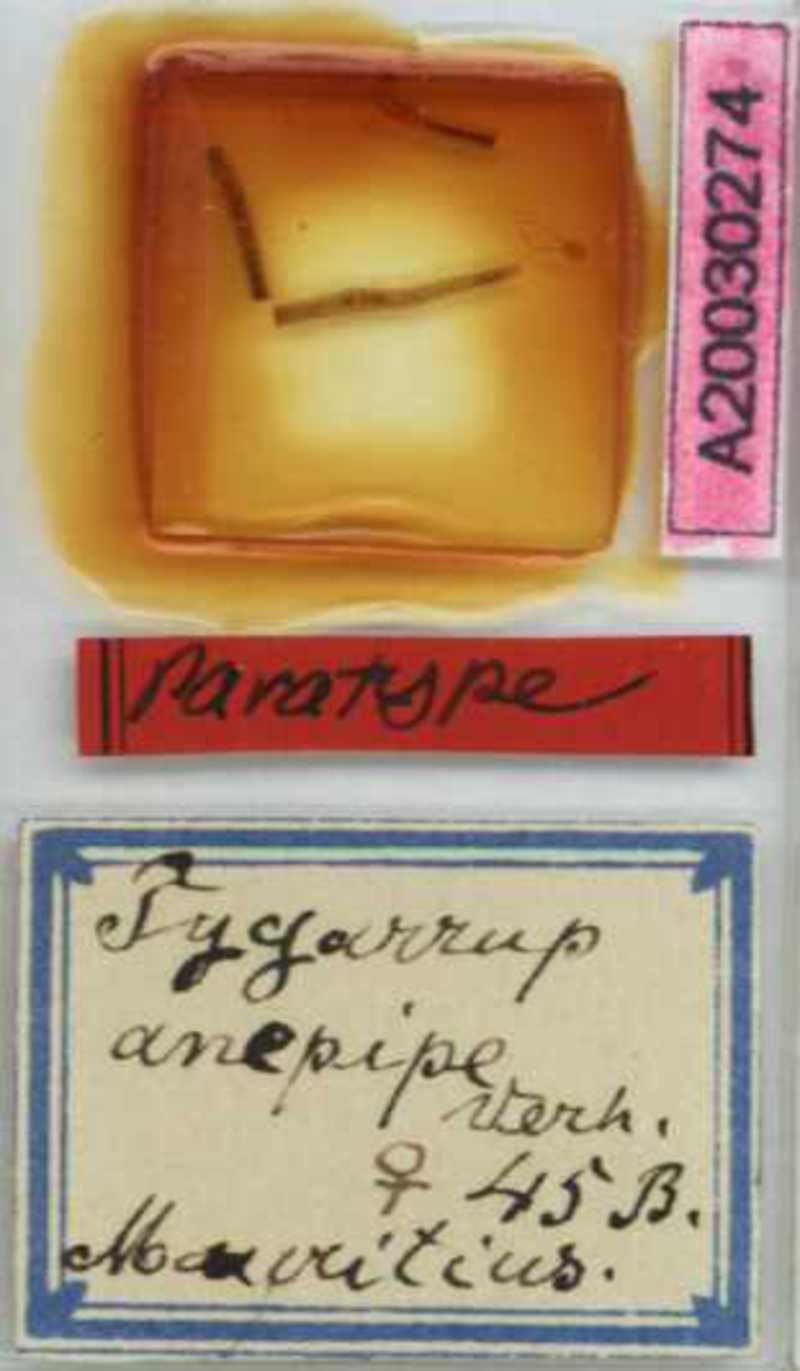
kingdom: Animalia
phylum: Arthropoda
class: Chilopoda
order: Geophilomorpha
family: Mecistocephalidae
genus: Tygarrup
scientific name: Tygarrup javanicus
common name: Centipede
